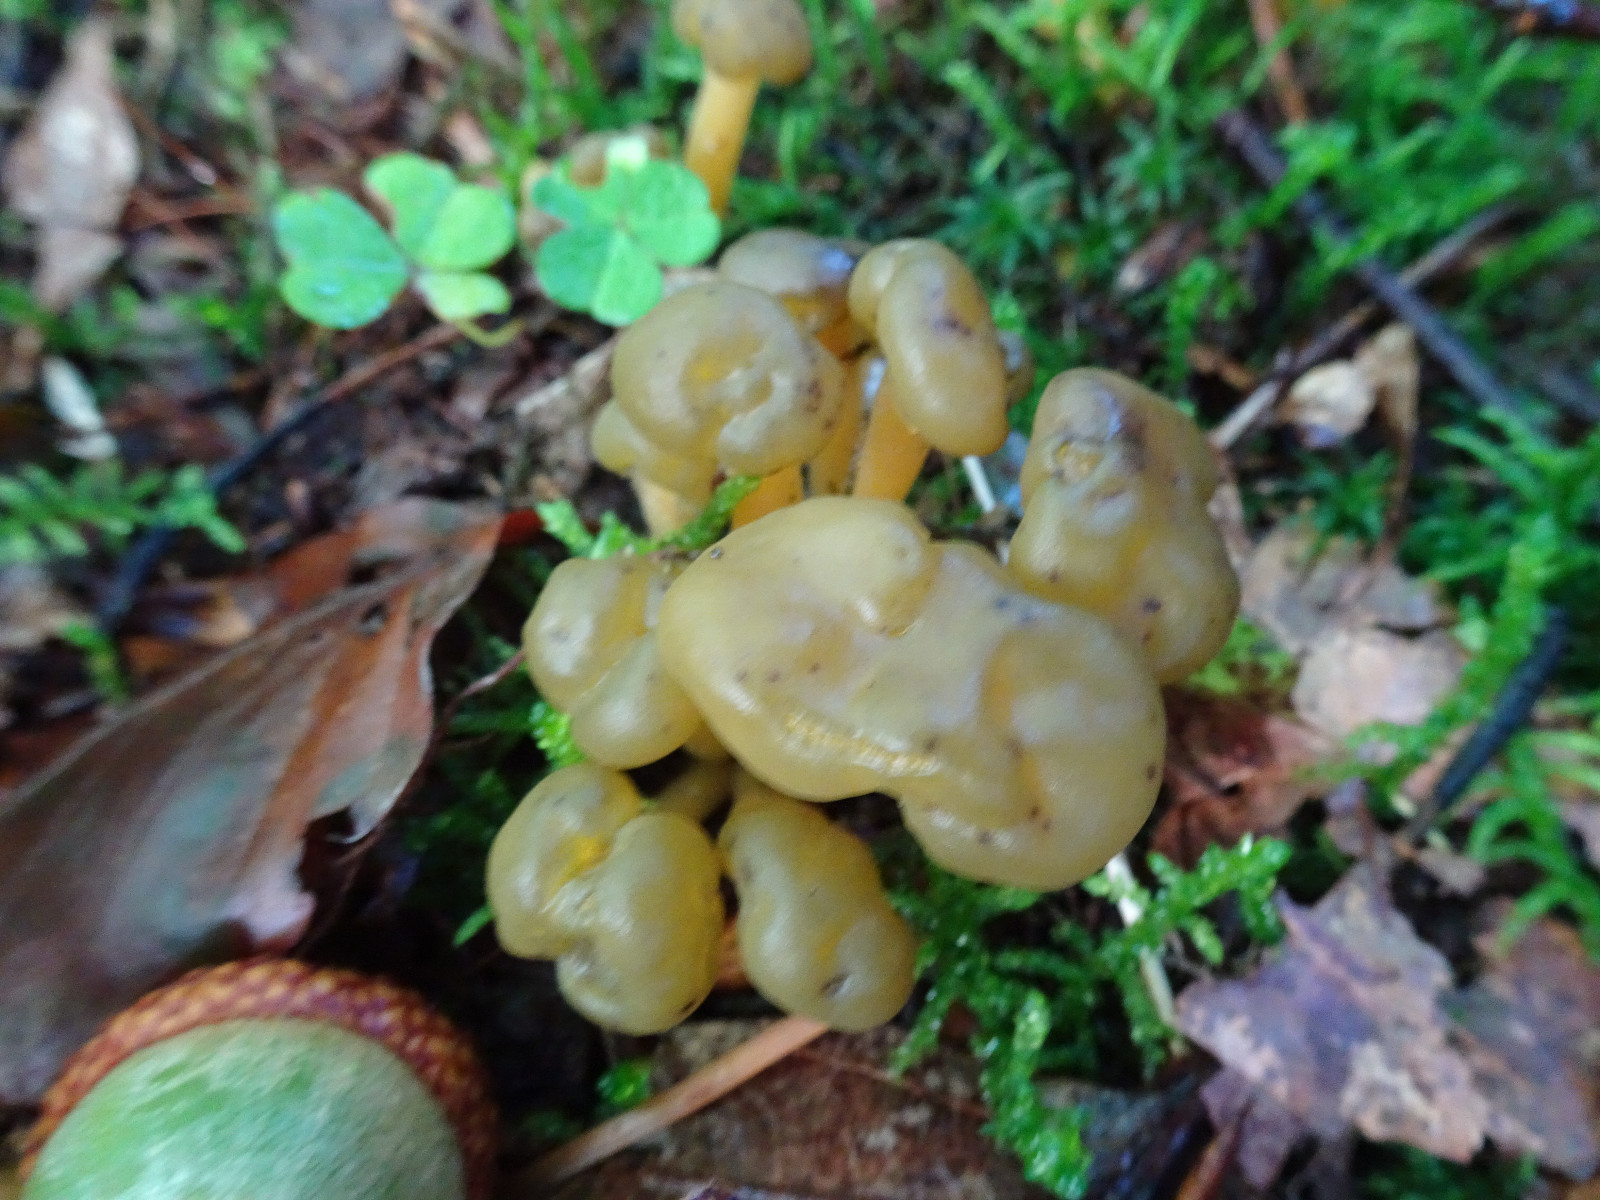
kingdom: Fungi
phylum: Ascomycota
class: Leotiomycetes
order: Leotiales
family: Leotiaceae
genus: Leotia
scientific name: Leotia lubrica
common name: ravsvamp
